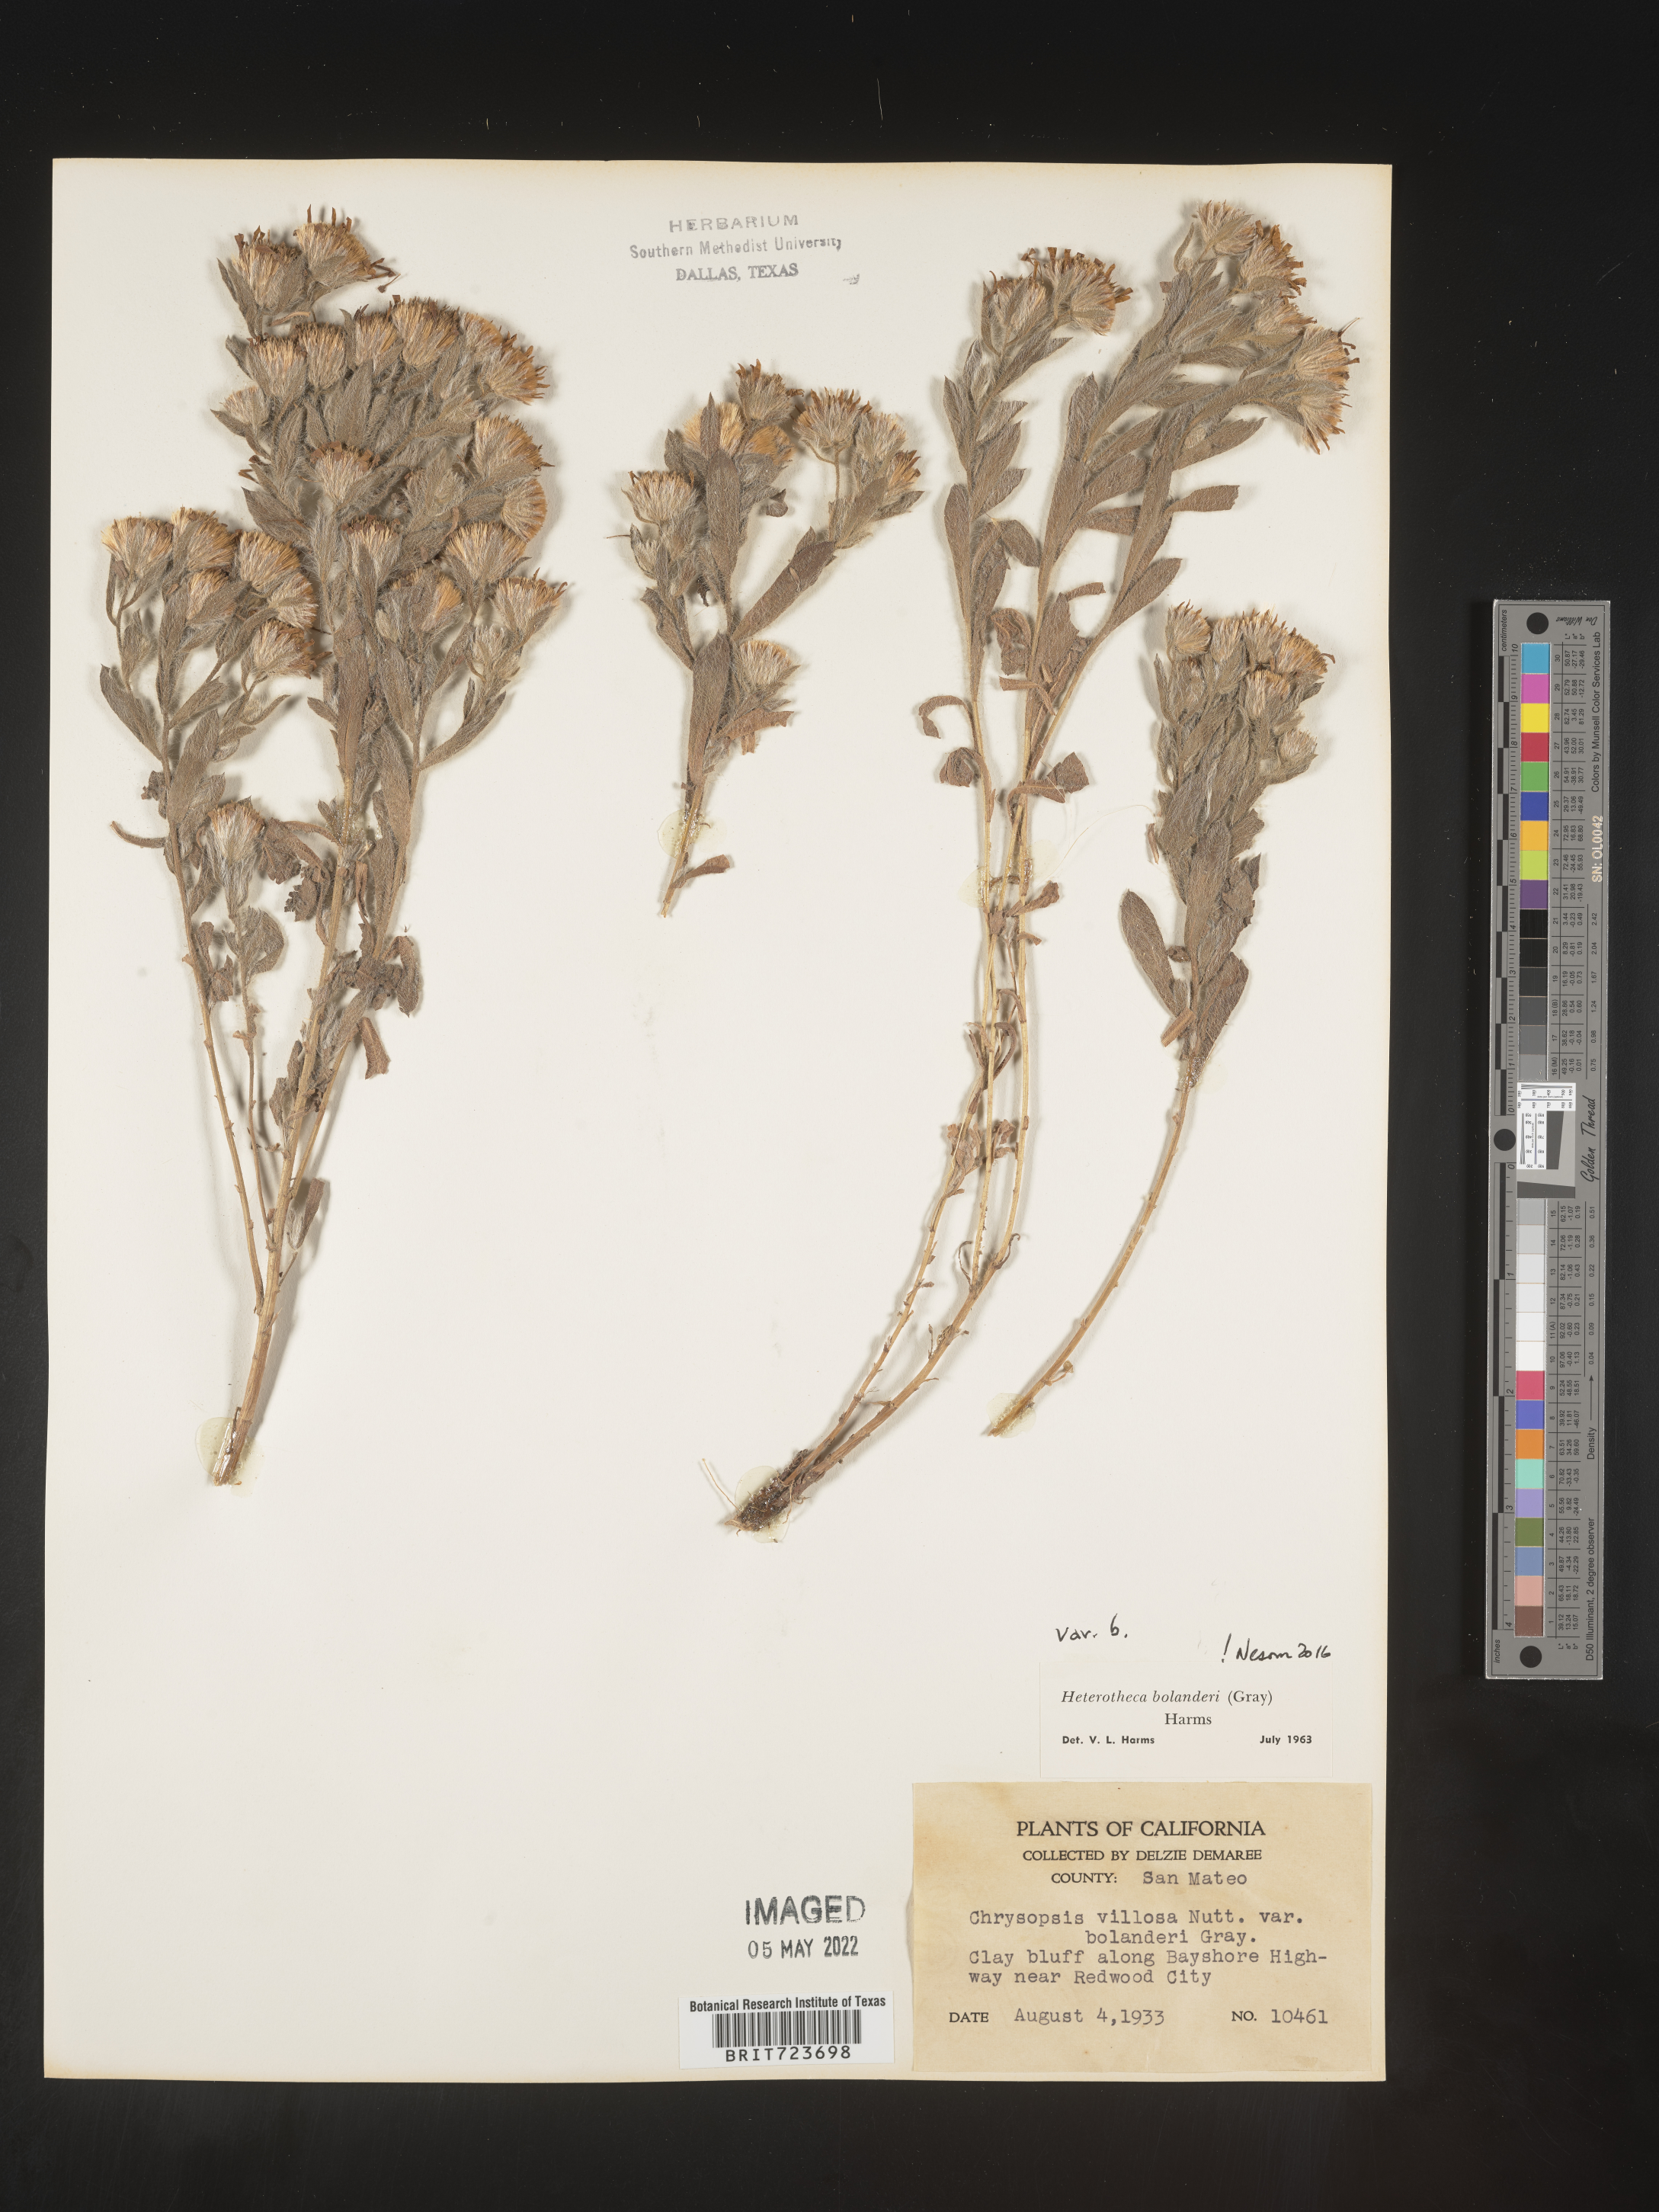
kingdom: Plantae
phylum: Tracheophyta
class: Magnoliopsida
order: Asterales
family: Asteraceae
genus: Heterotheca
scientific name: Heterotheca bolanderi
